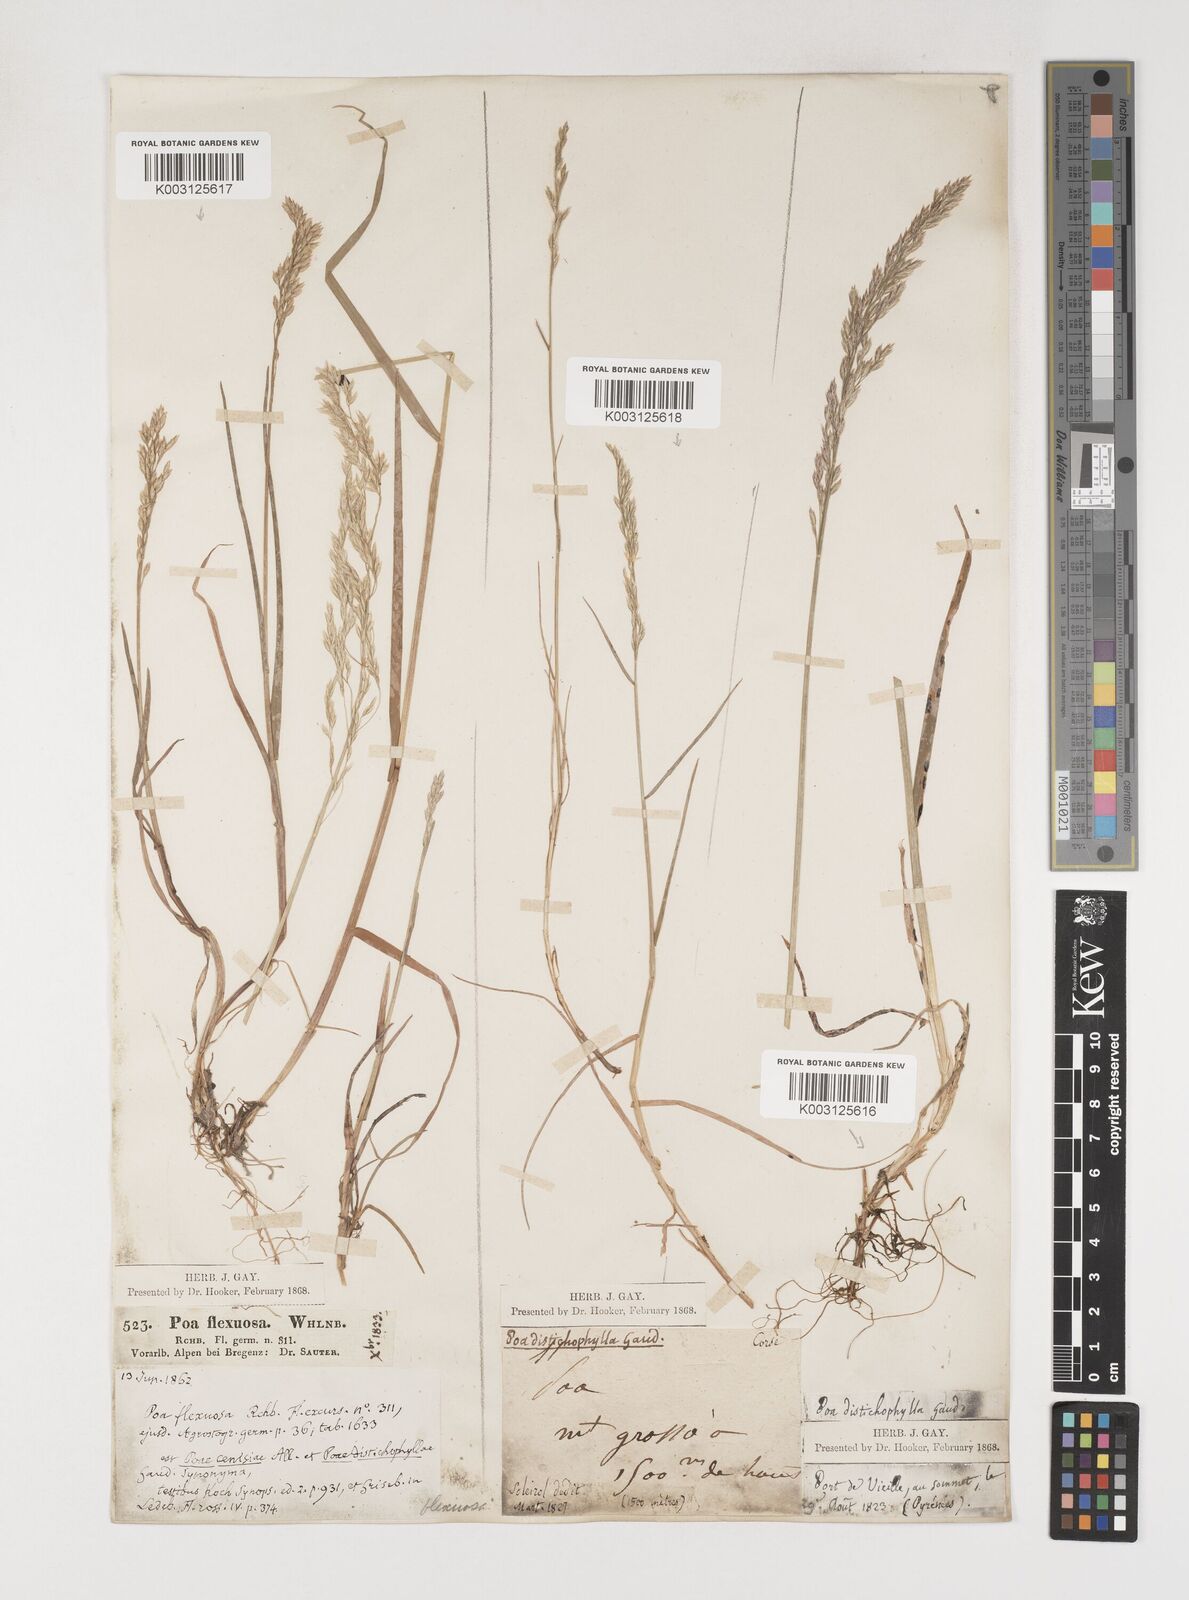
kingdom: Plantae
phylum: Tracheophyta
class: Liliopsida
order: Poales
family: Poaceae
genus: Poa
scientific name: Poa cenisia
